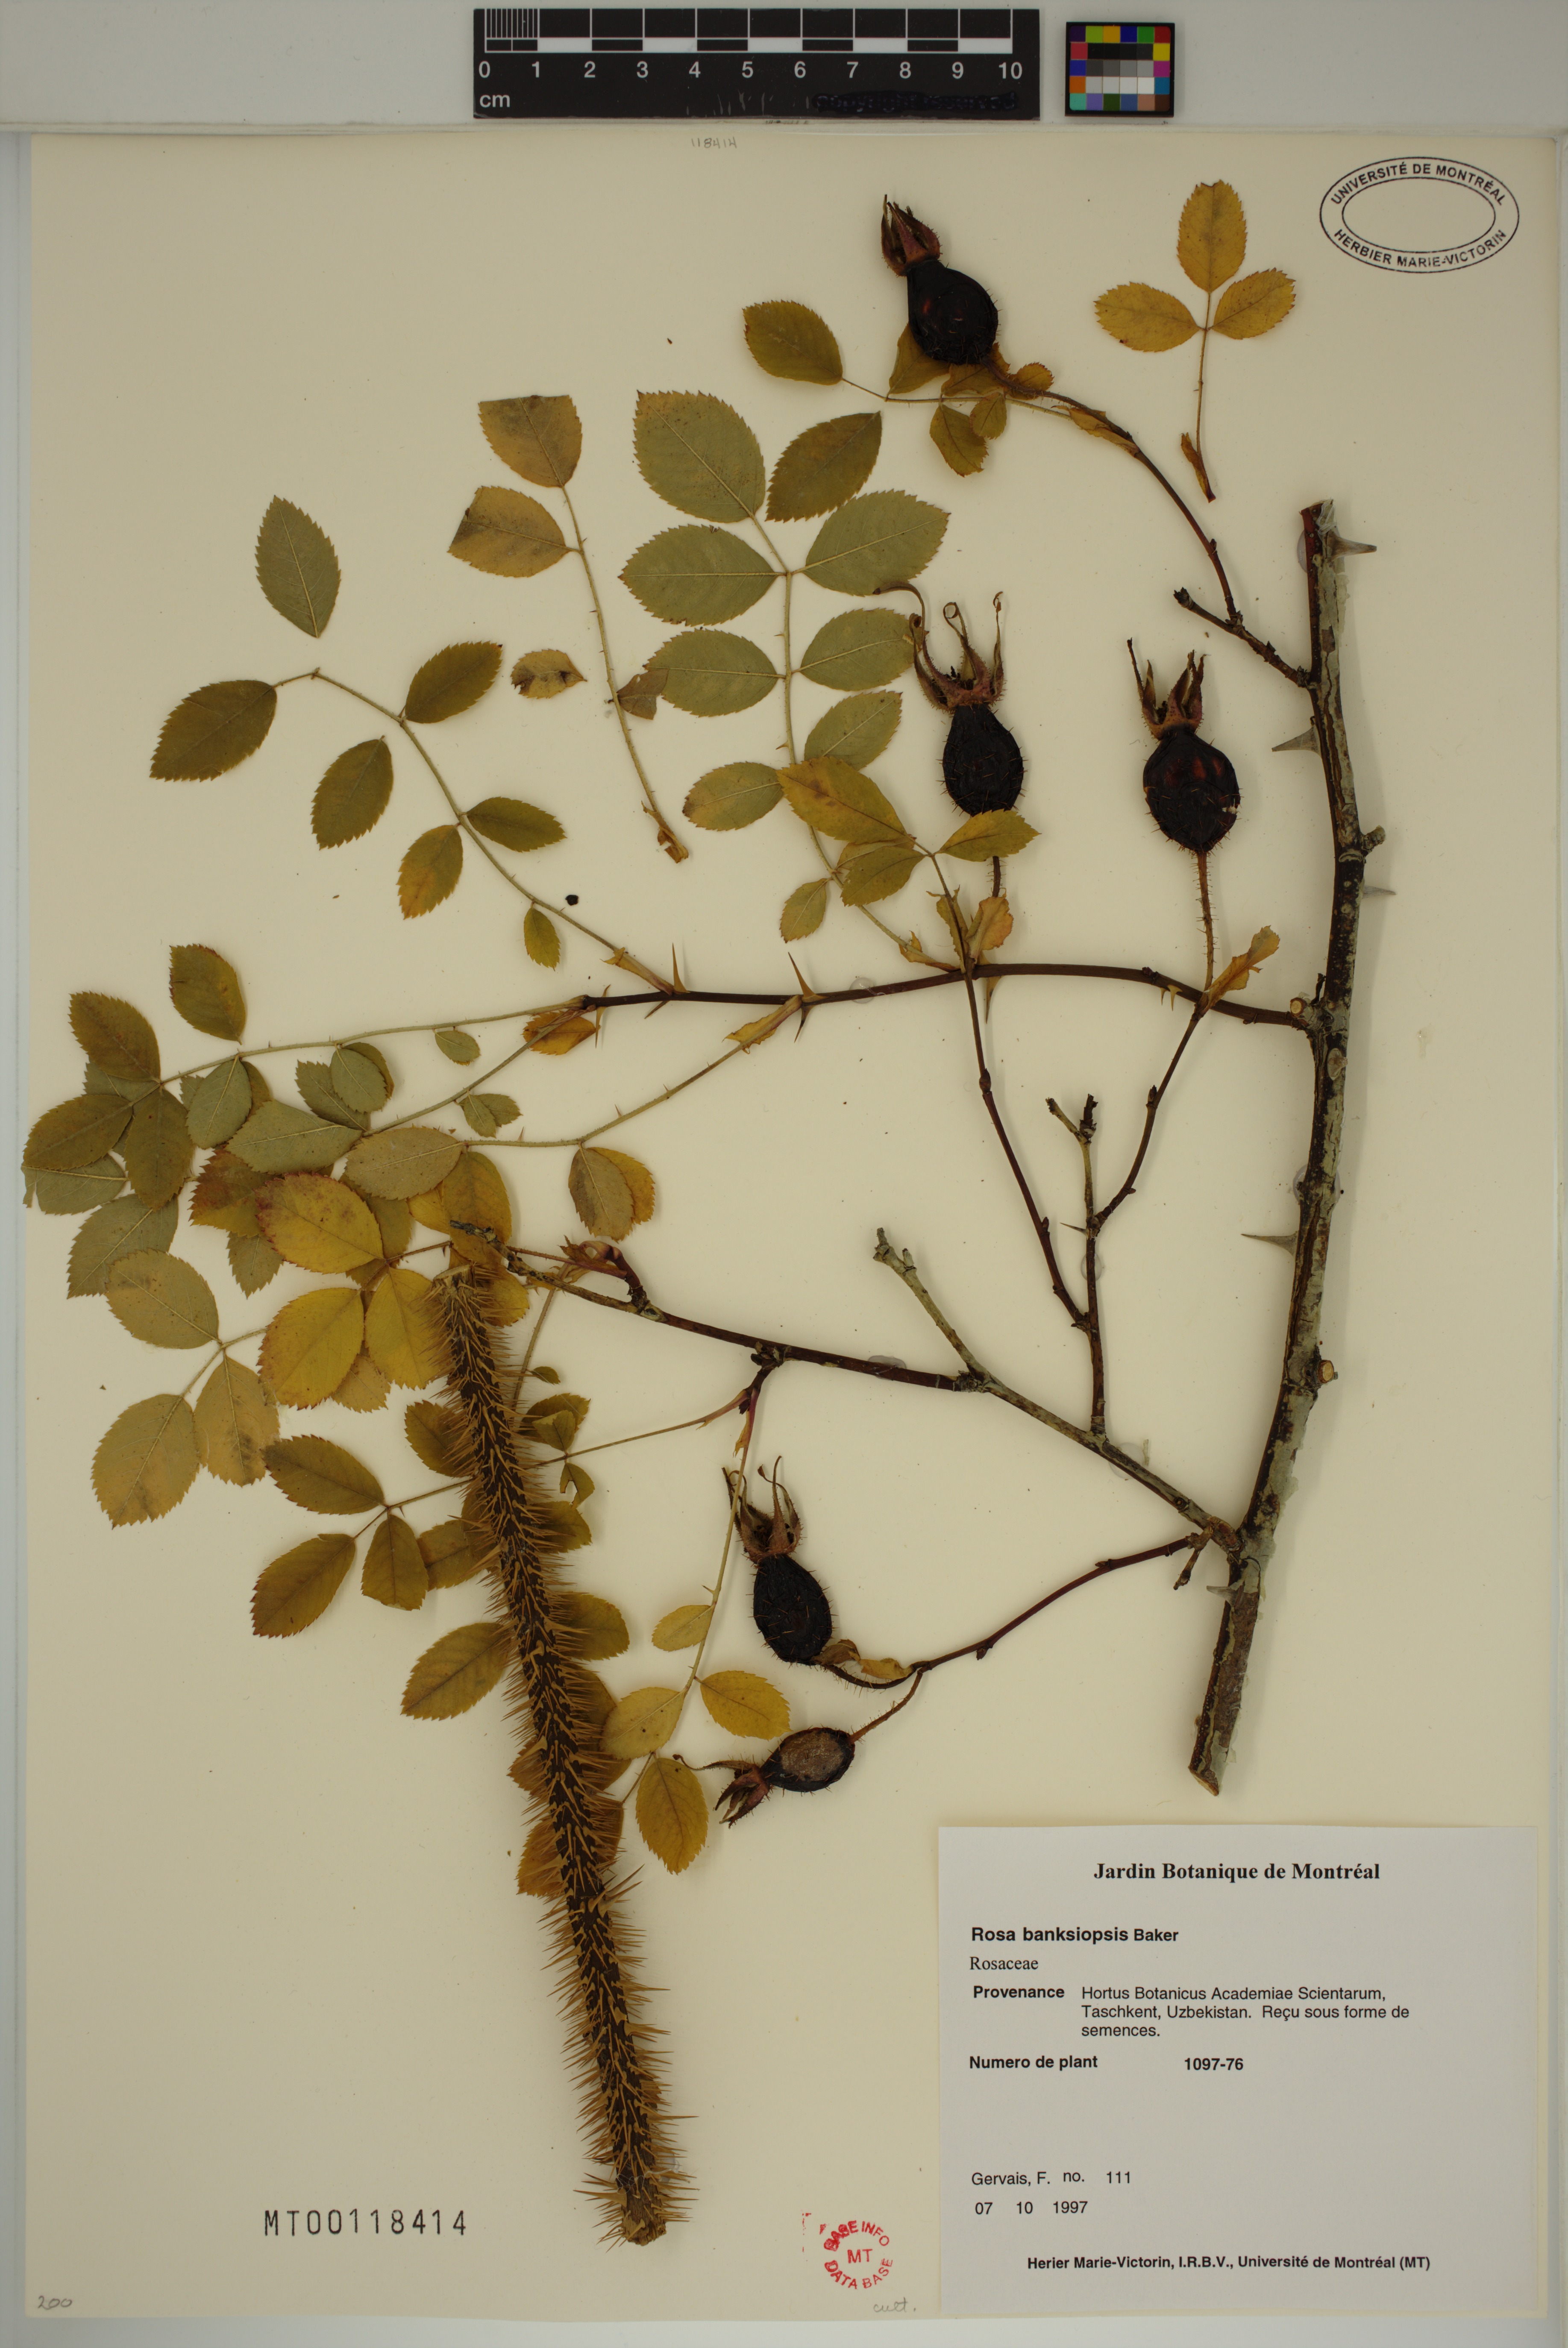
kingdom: Plantae
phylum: Tracheophyta
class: Magnoliopsida
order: Rosales
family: Rosaceae
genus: Rosa
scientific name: Rosa banksiopsis
